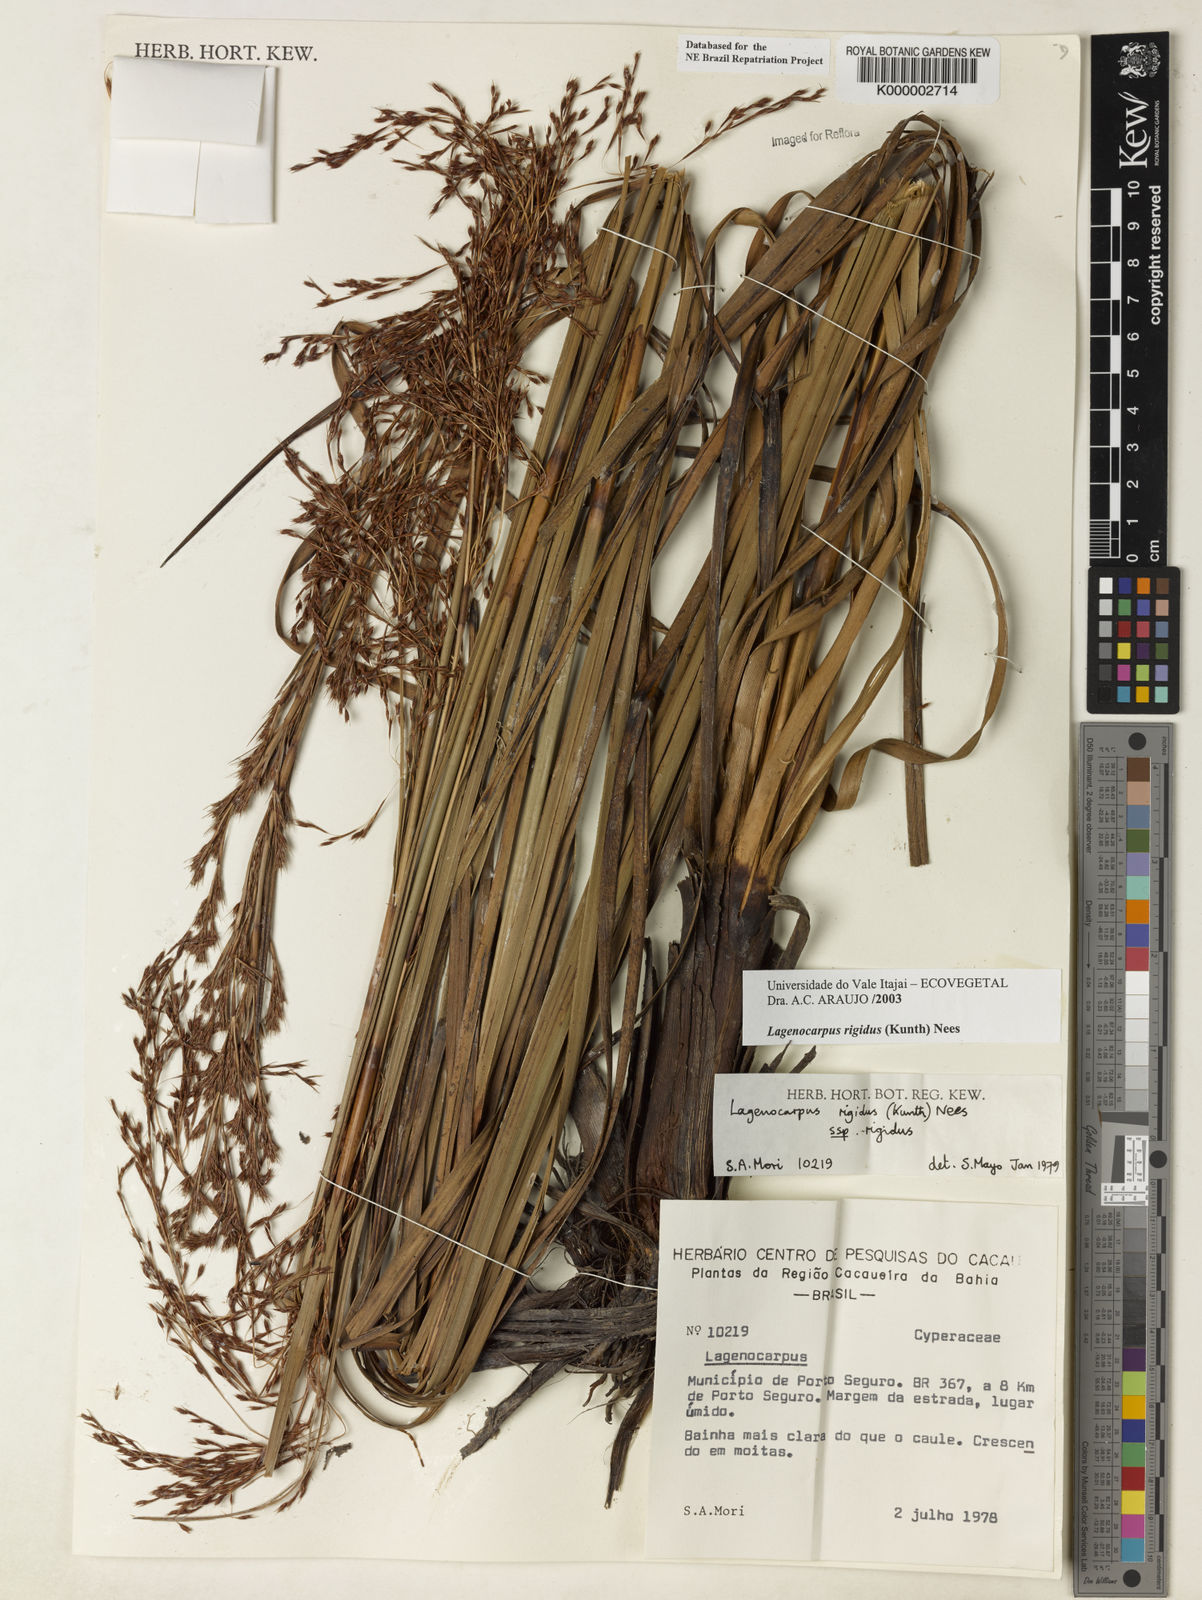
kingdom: Plantae
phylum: Tracheophyta
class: Liliopsida
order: Poales
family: Cyperaceae
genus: Lagenocarpus
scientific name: Lagenocarpus rigidus
